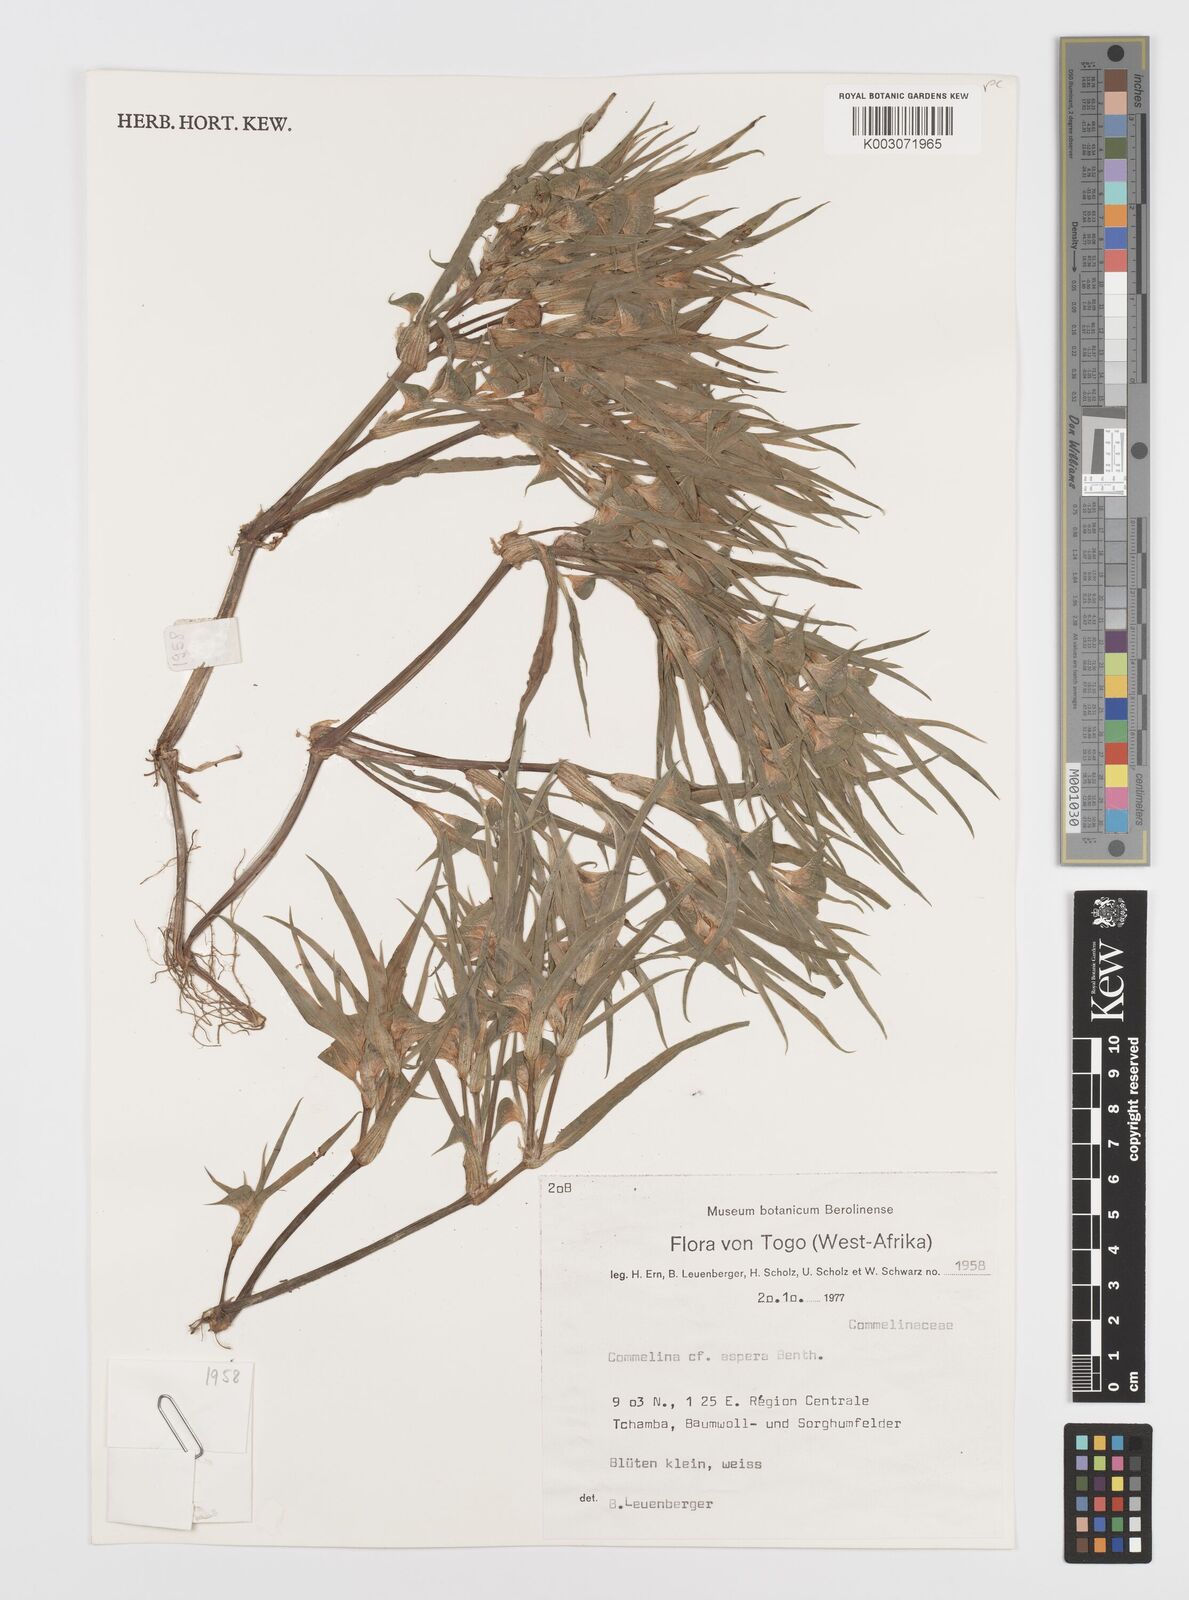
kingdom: Plantae
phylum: Tracheophyta
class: Liliopsida
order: Commelinales
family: Commelinaceae
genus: Commelina
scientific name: Commelina aspera
